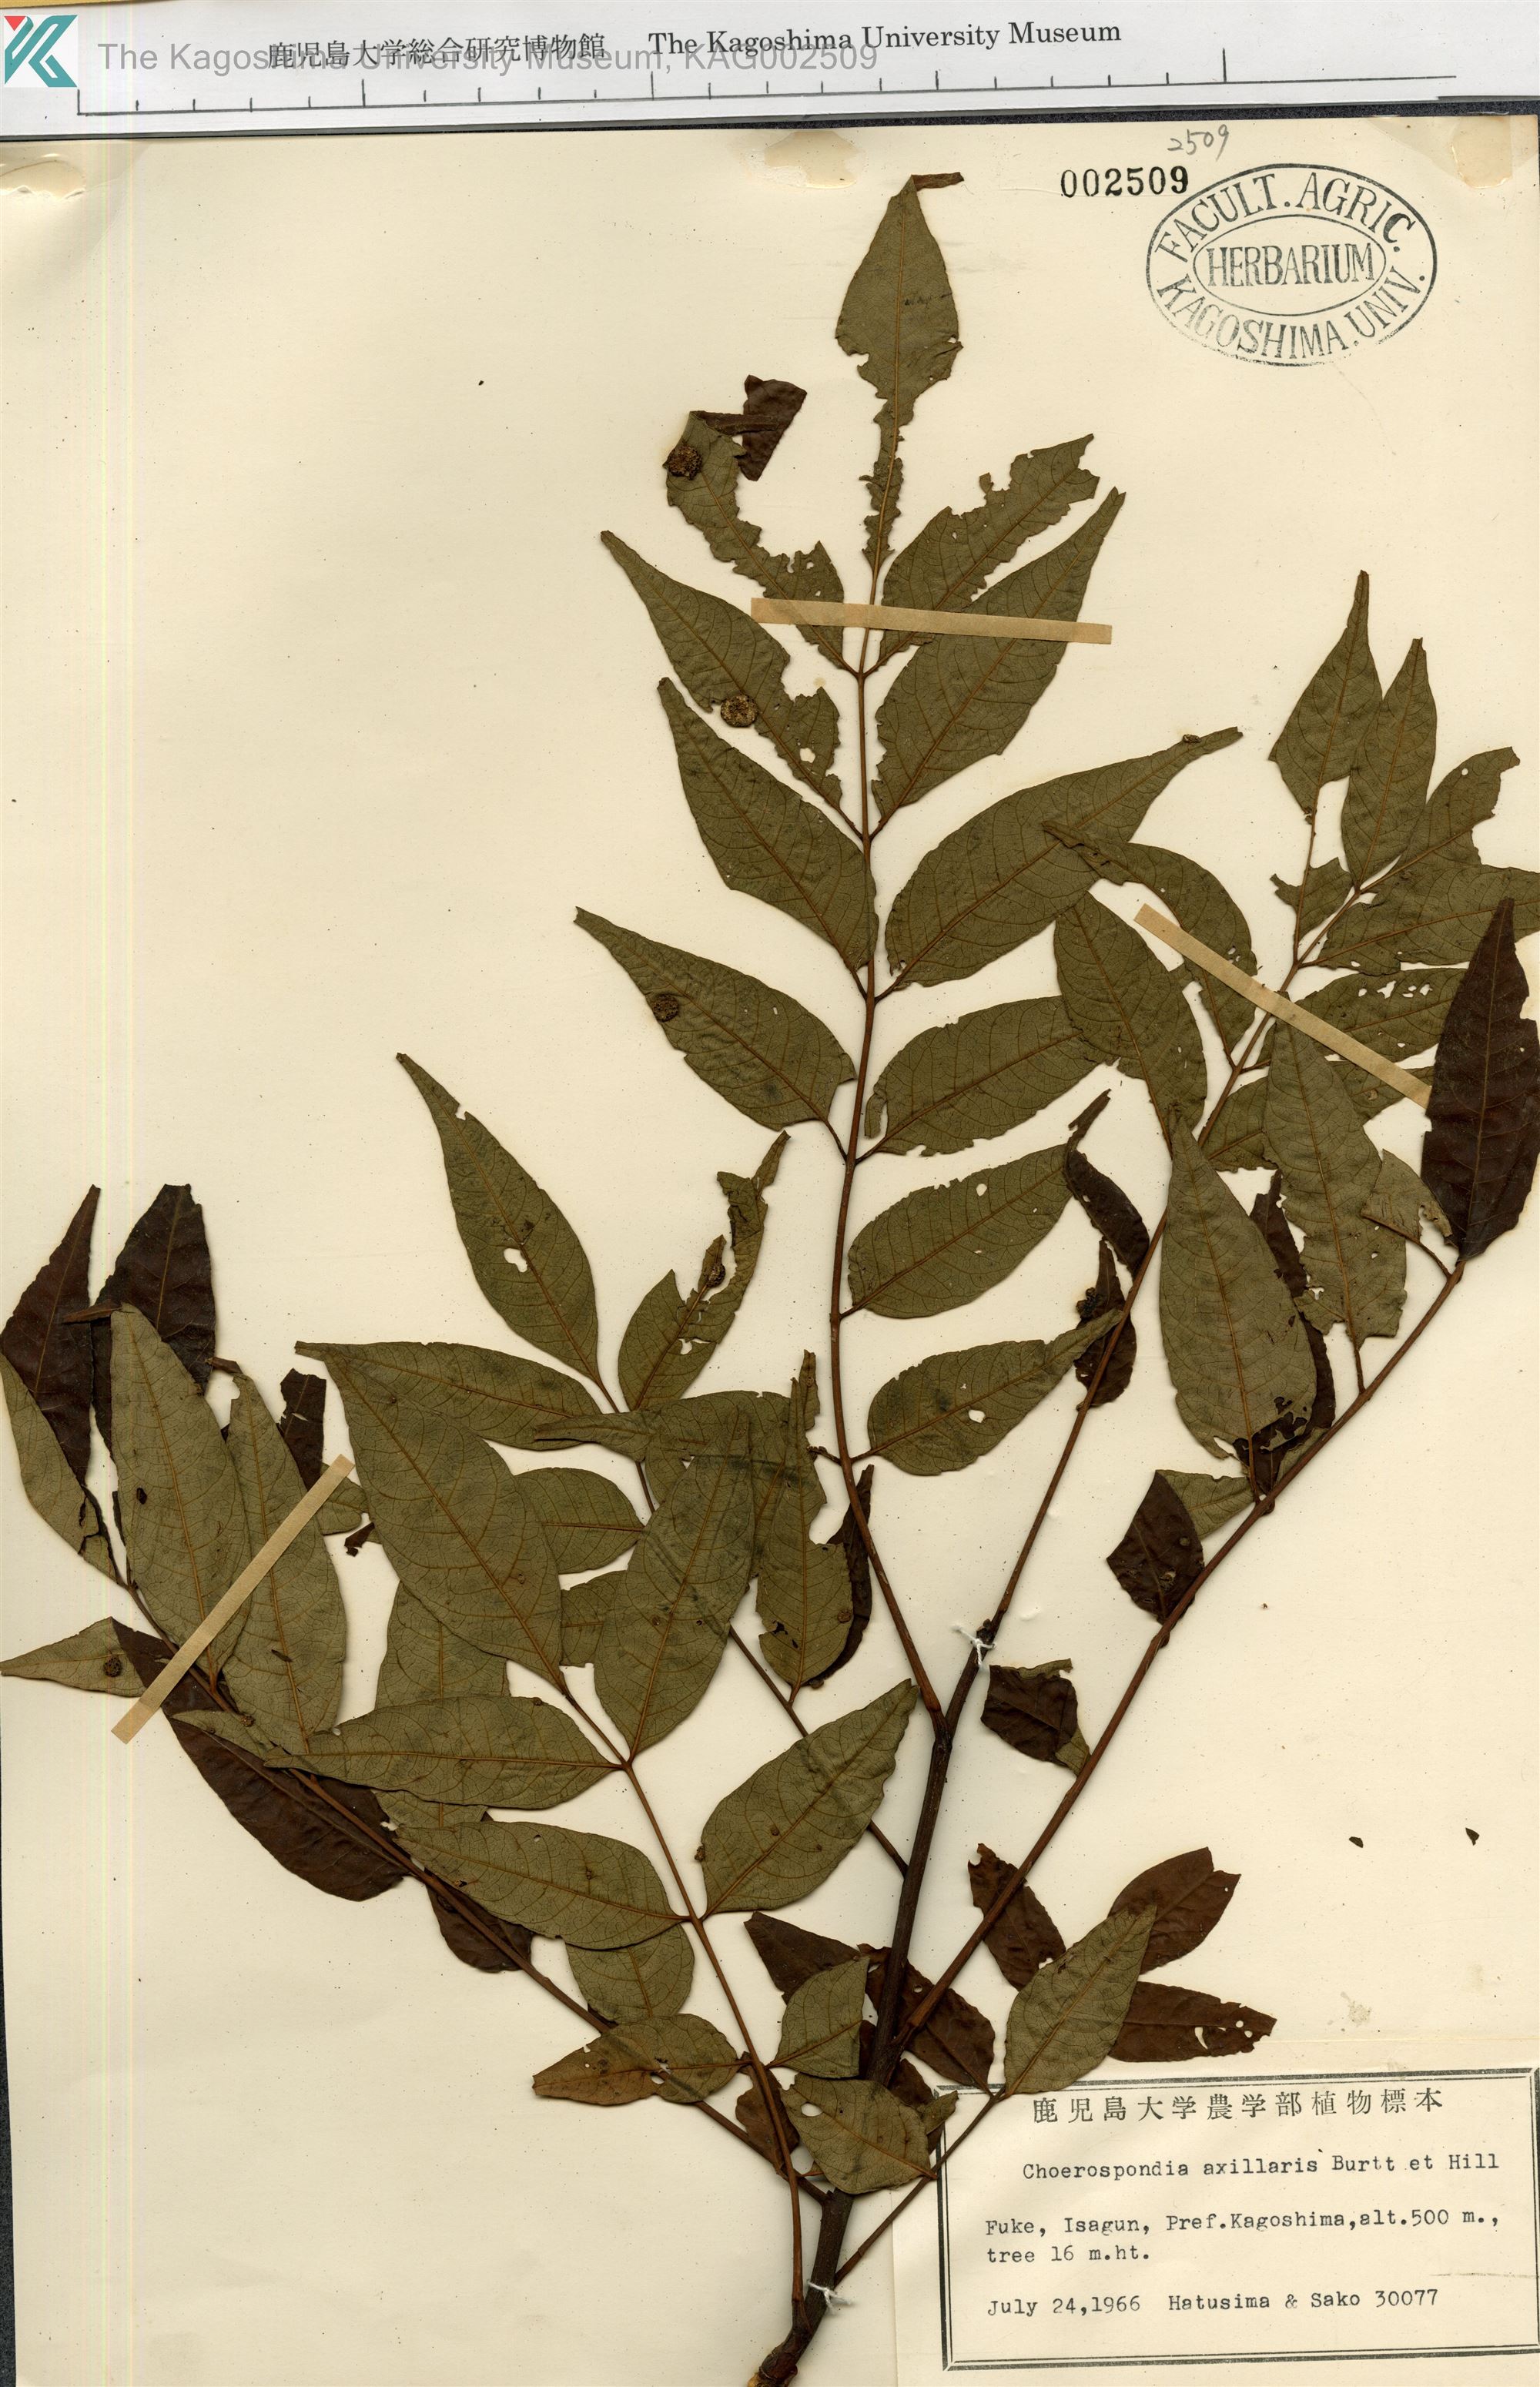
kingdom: Plantae
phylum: Tracheophyta
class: Magnoliopsida
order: Sapindales
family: Anacardiaceae
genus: Choerospondias
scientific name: Choerospondias axillaris
